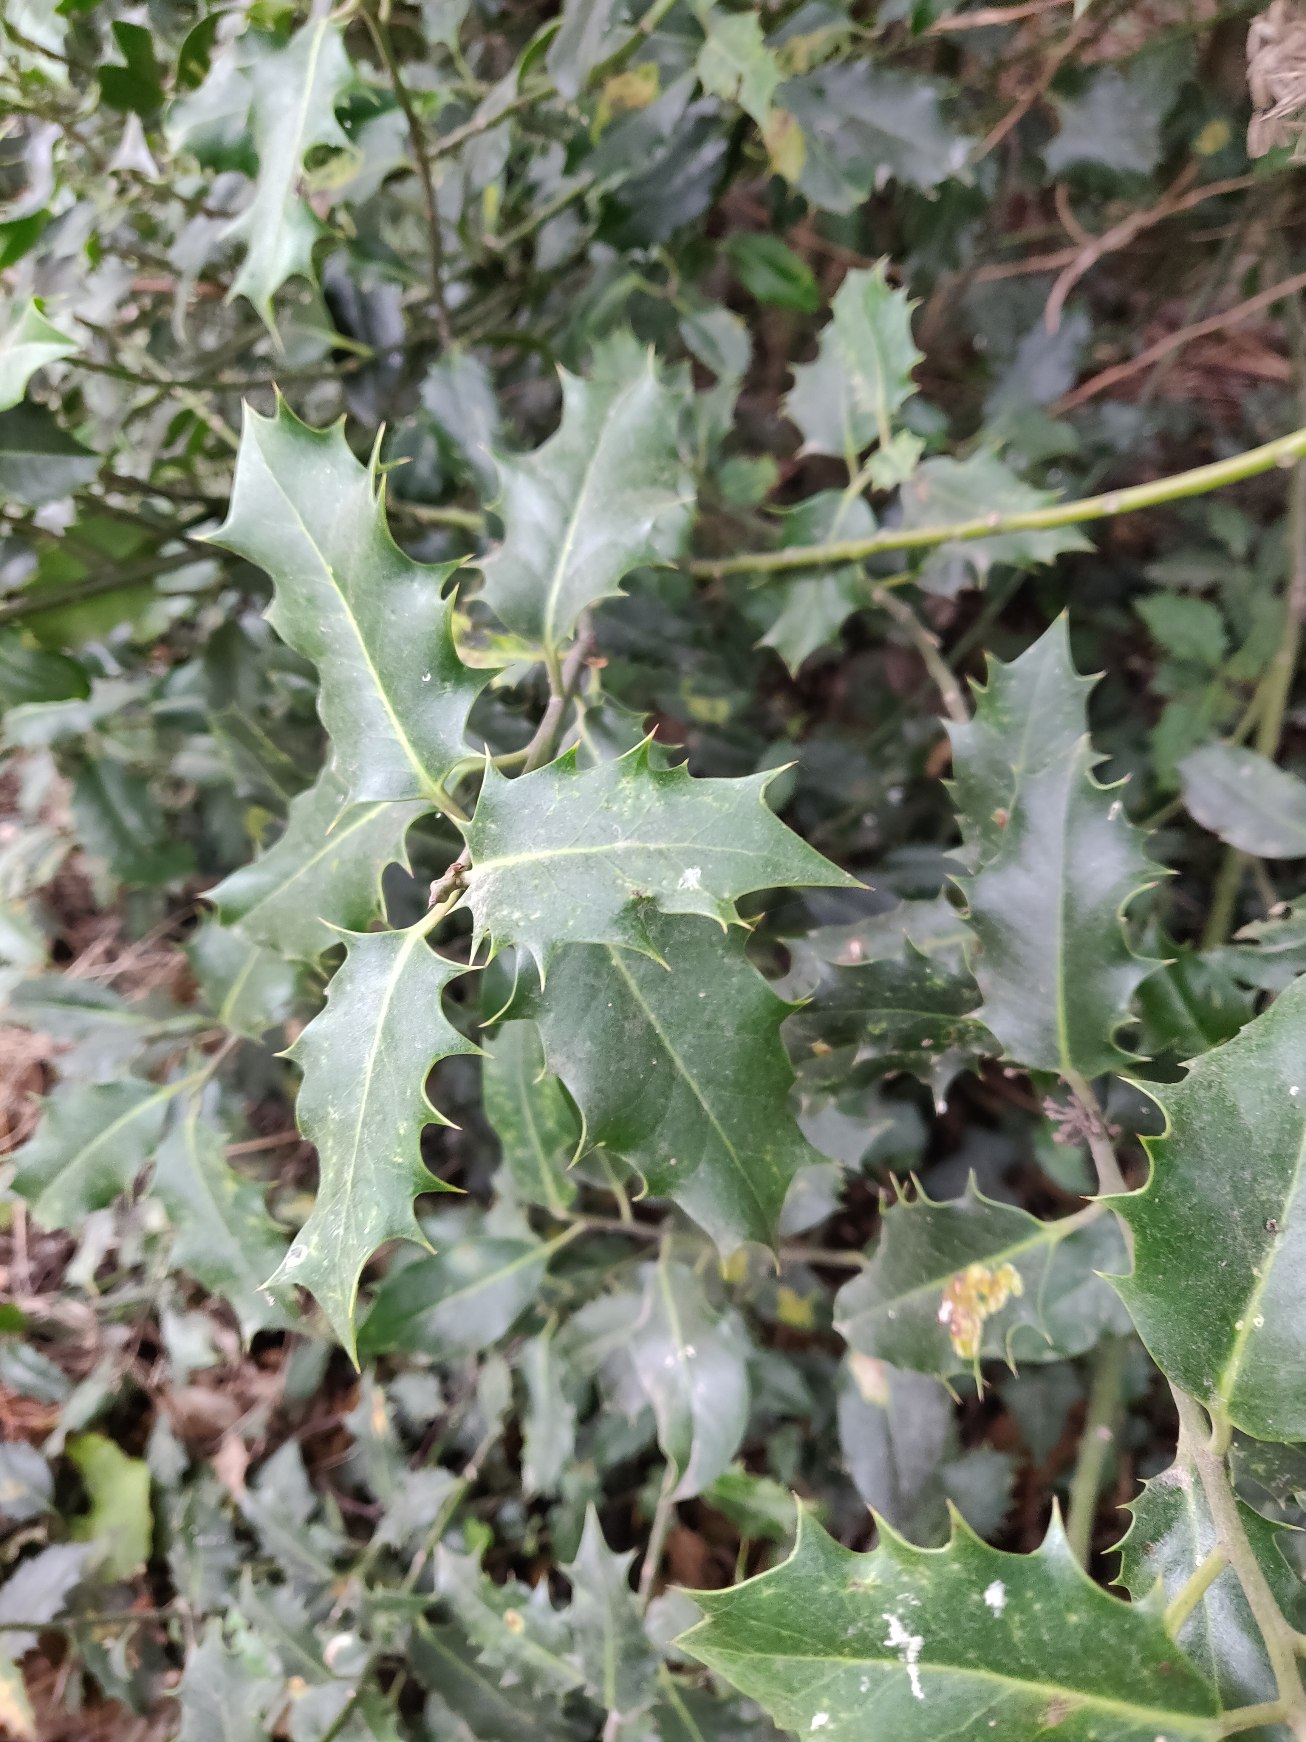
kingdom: Plantae
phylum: Tracheophyta
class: Magnoliopsida
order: Aquifoliales
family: Aquifoliaceae
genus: Ilex
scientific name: Ilex aquifolium
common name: Kristtorn
